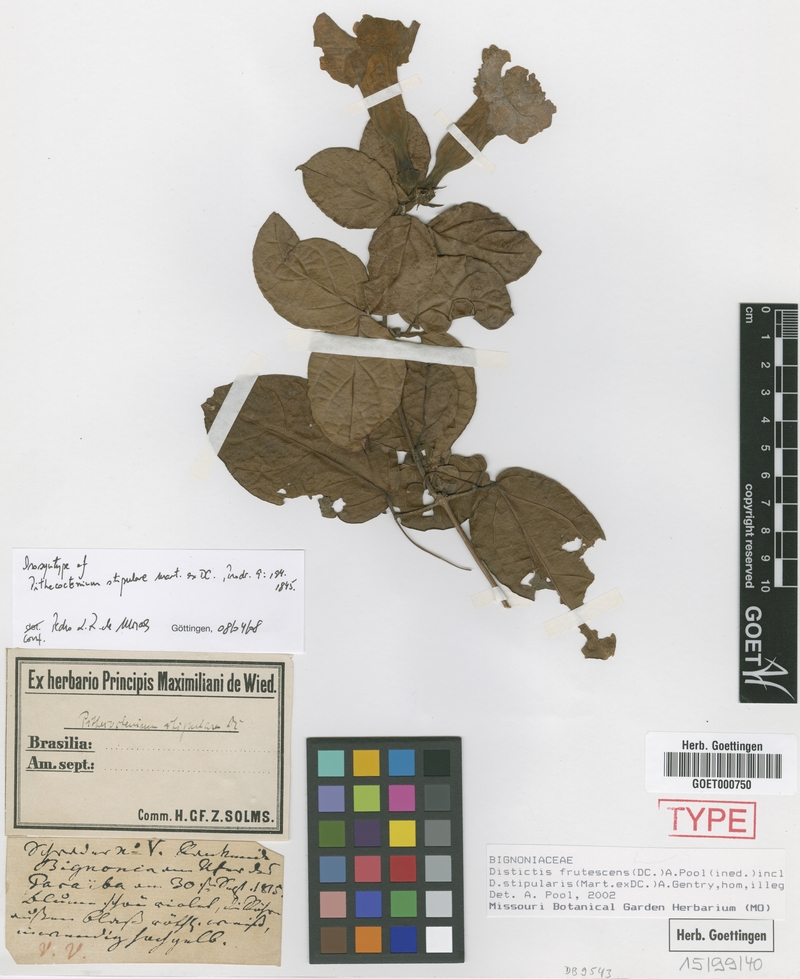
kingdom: Plantae
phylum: Tracheophyta
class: Magnoliopsida
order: Lamiales
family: Bignoniaceae
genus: Amphilophium
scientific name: Amphilophium frutescens
